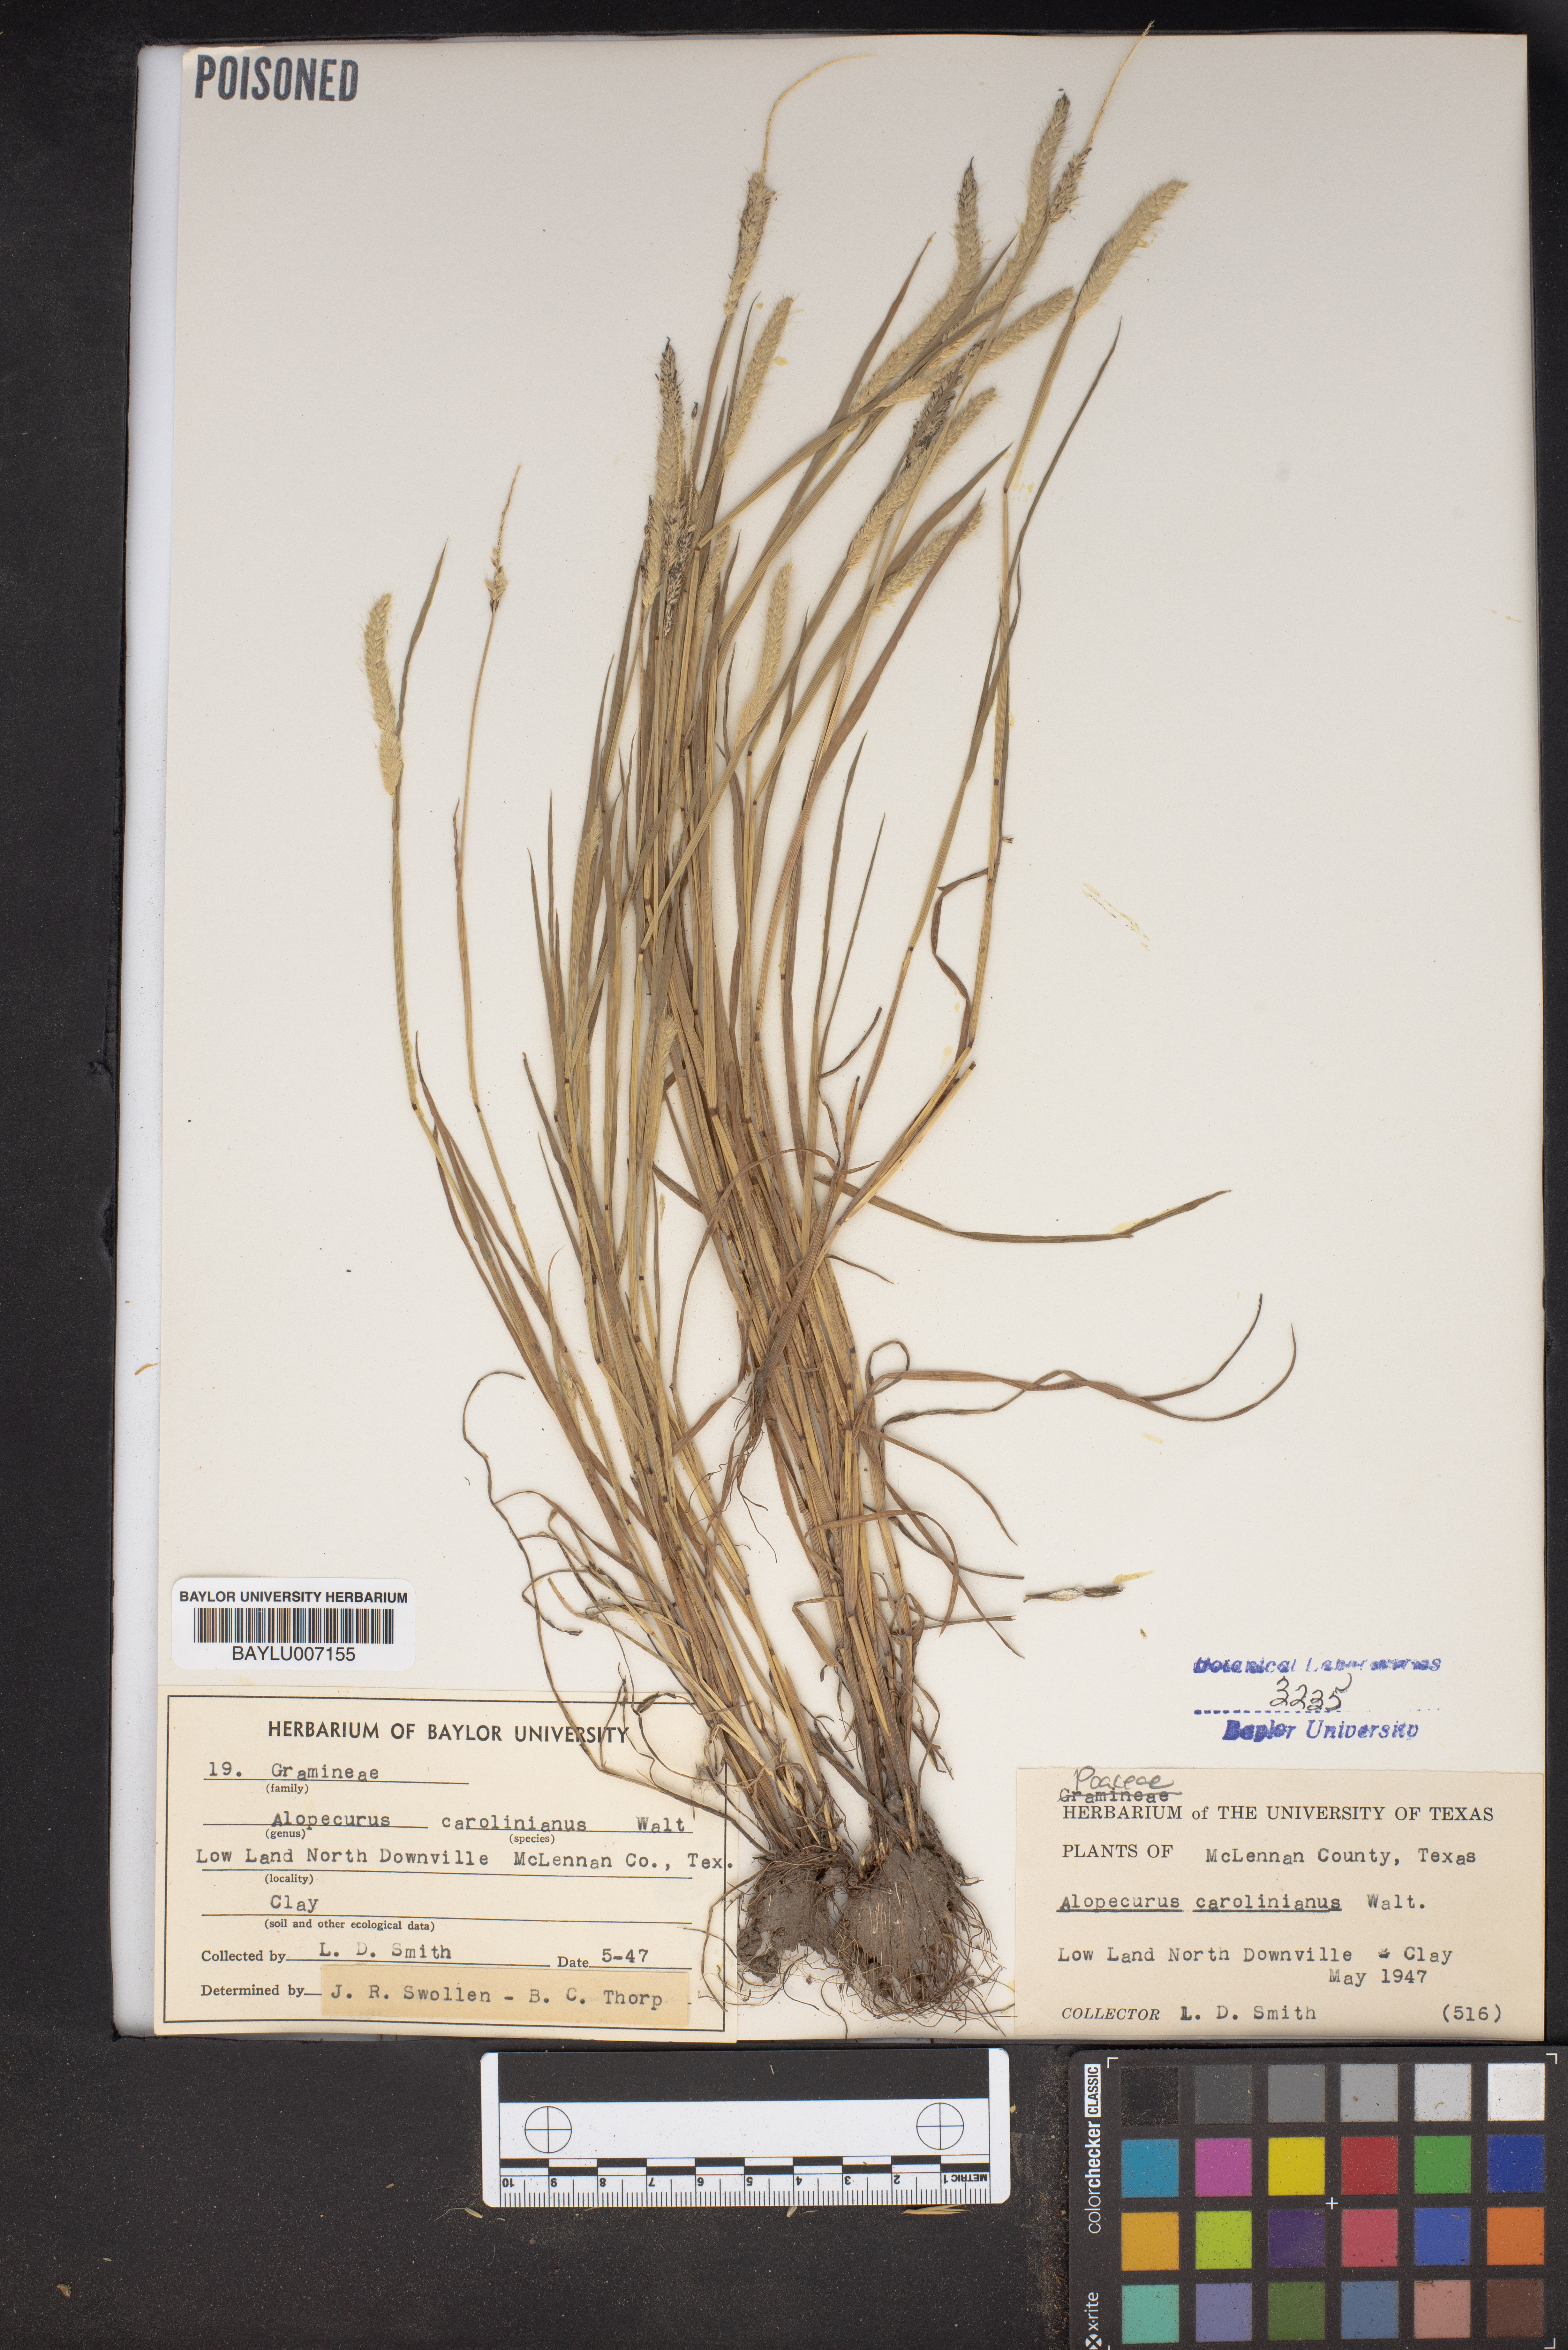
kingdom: Plantae
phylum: Tracheophyta
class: Liliopsida
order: Poales
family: Poaceae
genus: Alopecurus
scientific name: Alopecurus carolinianus
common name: Tufted foxtail
